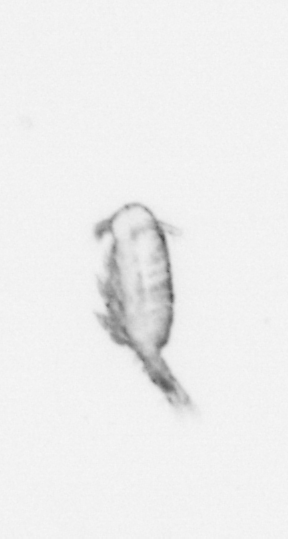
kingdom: Animalia
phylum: Arthropoda
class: Copepoda
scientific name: Copepoda
